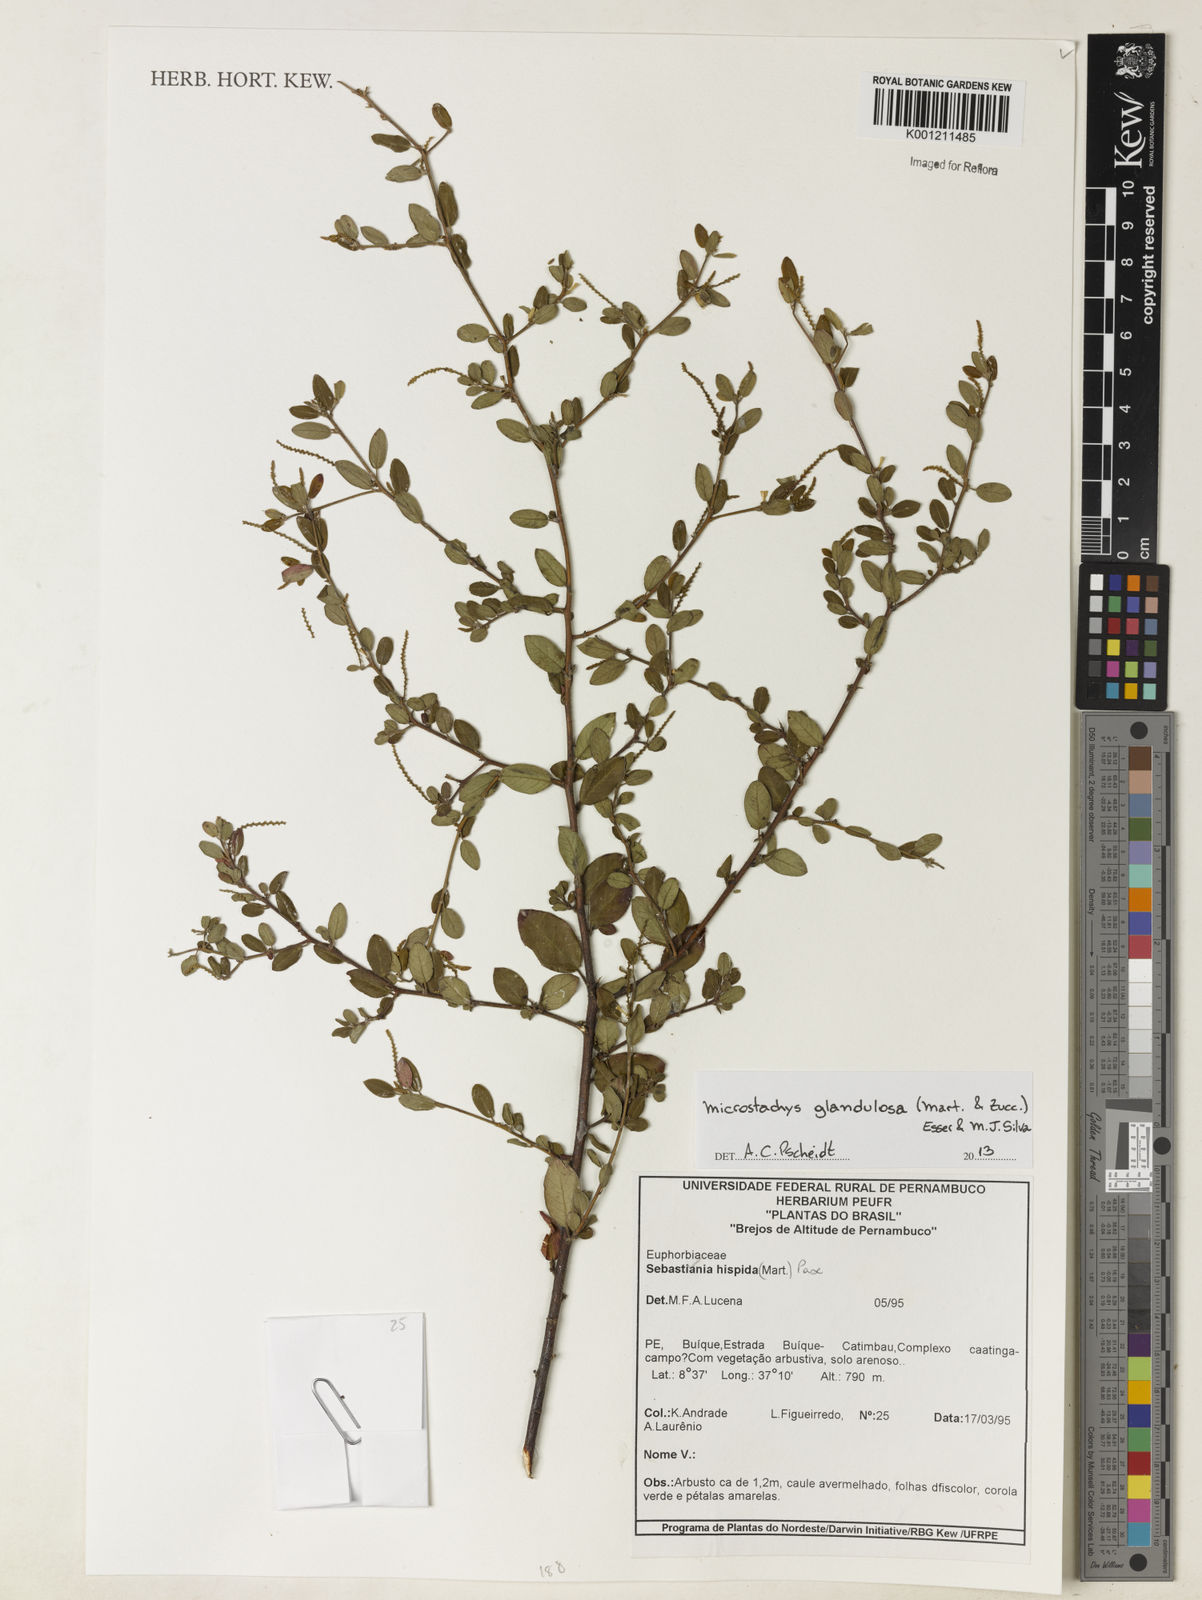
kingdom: Plantae
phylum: Tracheophyta
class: Magnoliopsida
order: Malpighiales
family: Euphorbiaceae
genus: Microstachys
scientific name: Microstachys glandulosa
